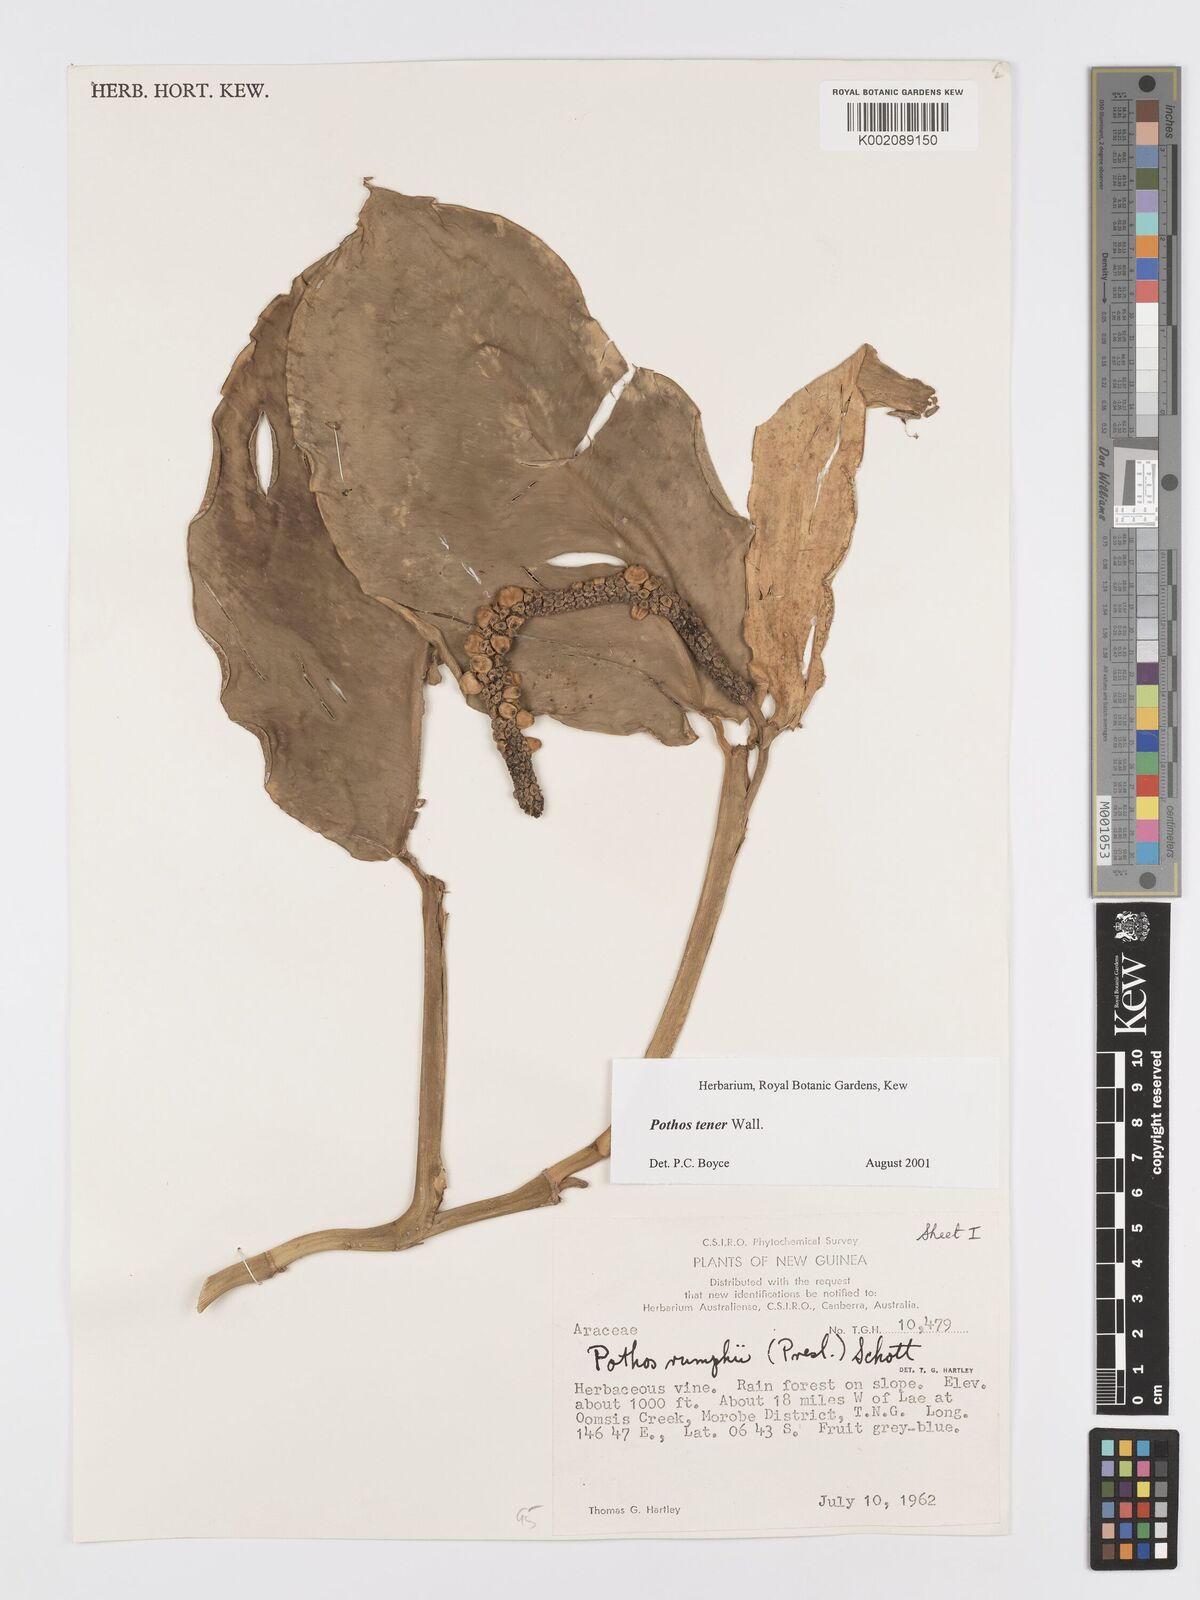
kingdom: Plantae
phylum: Tracheophyta
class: Liliopsida
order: Alismatales
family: Araceae
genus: Pothos
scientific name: Pothos tener
